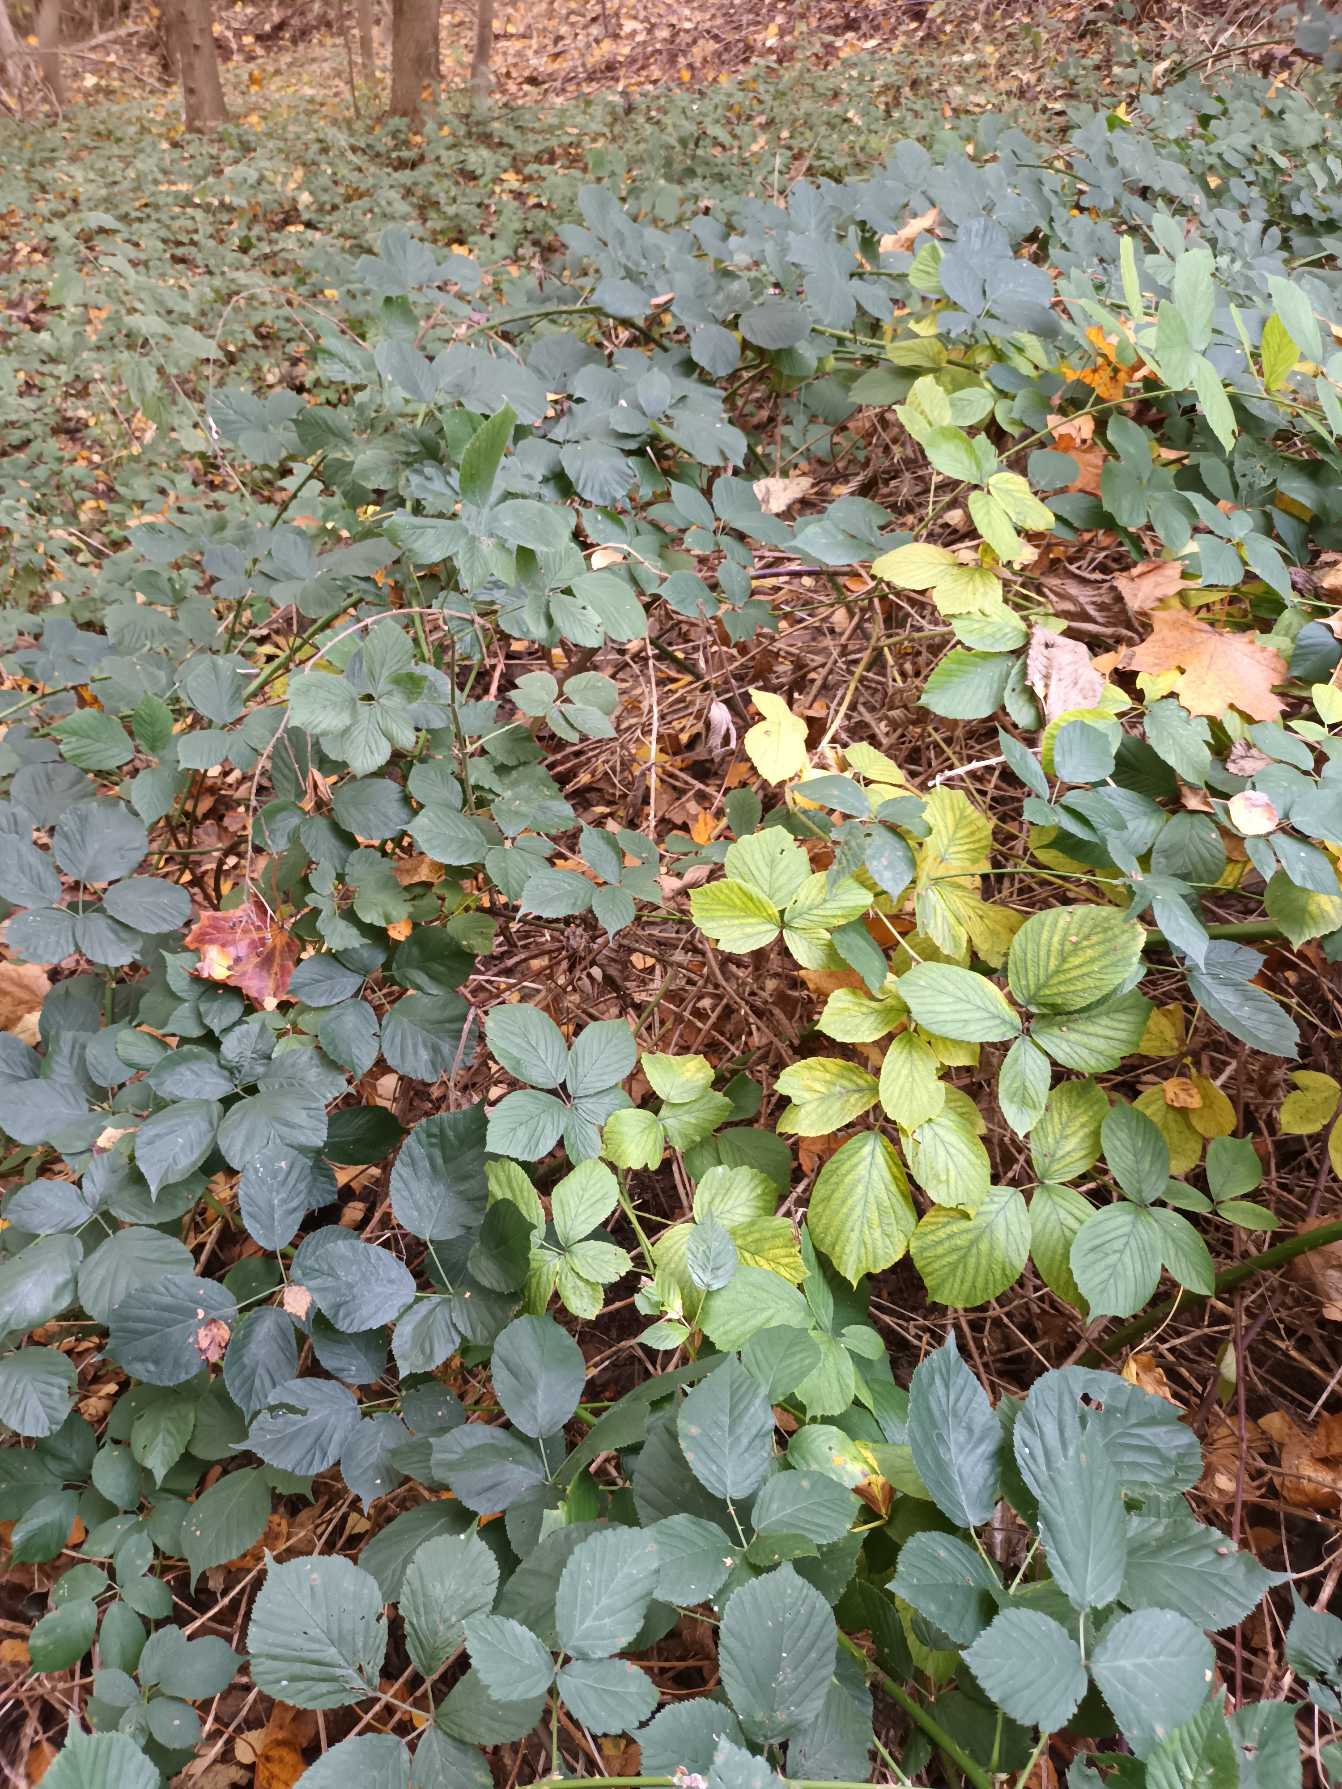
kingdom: Plantae
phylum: Tracheophyta
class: Magnoliopsida
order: Rosales
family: Rosaceae
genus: Rubus
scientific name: Rubus polyanthemus
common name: Rigtblomstret brombær
